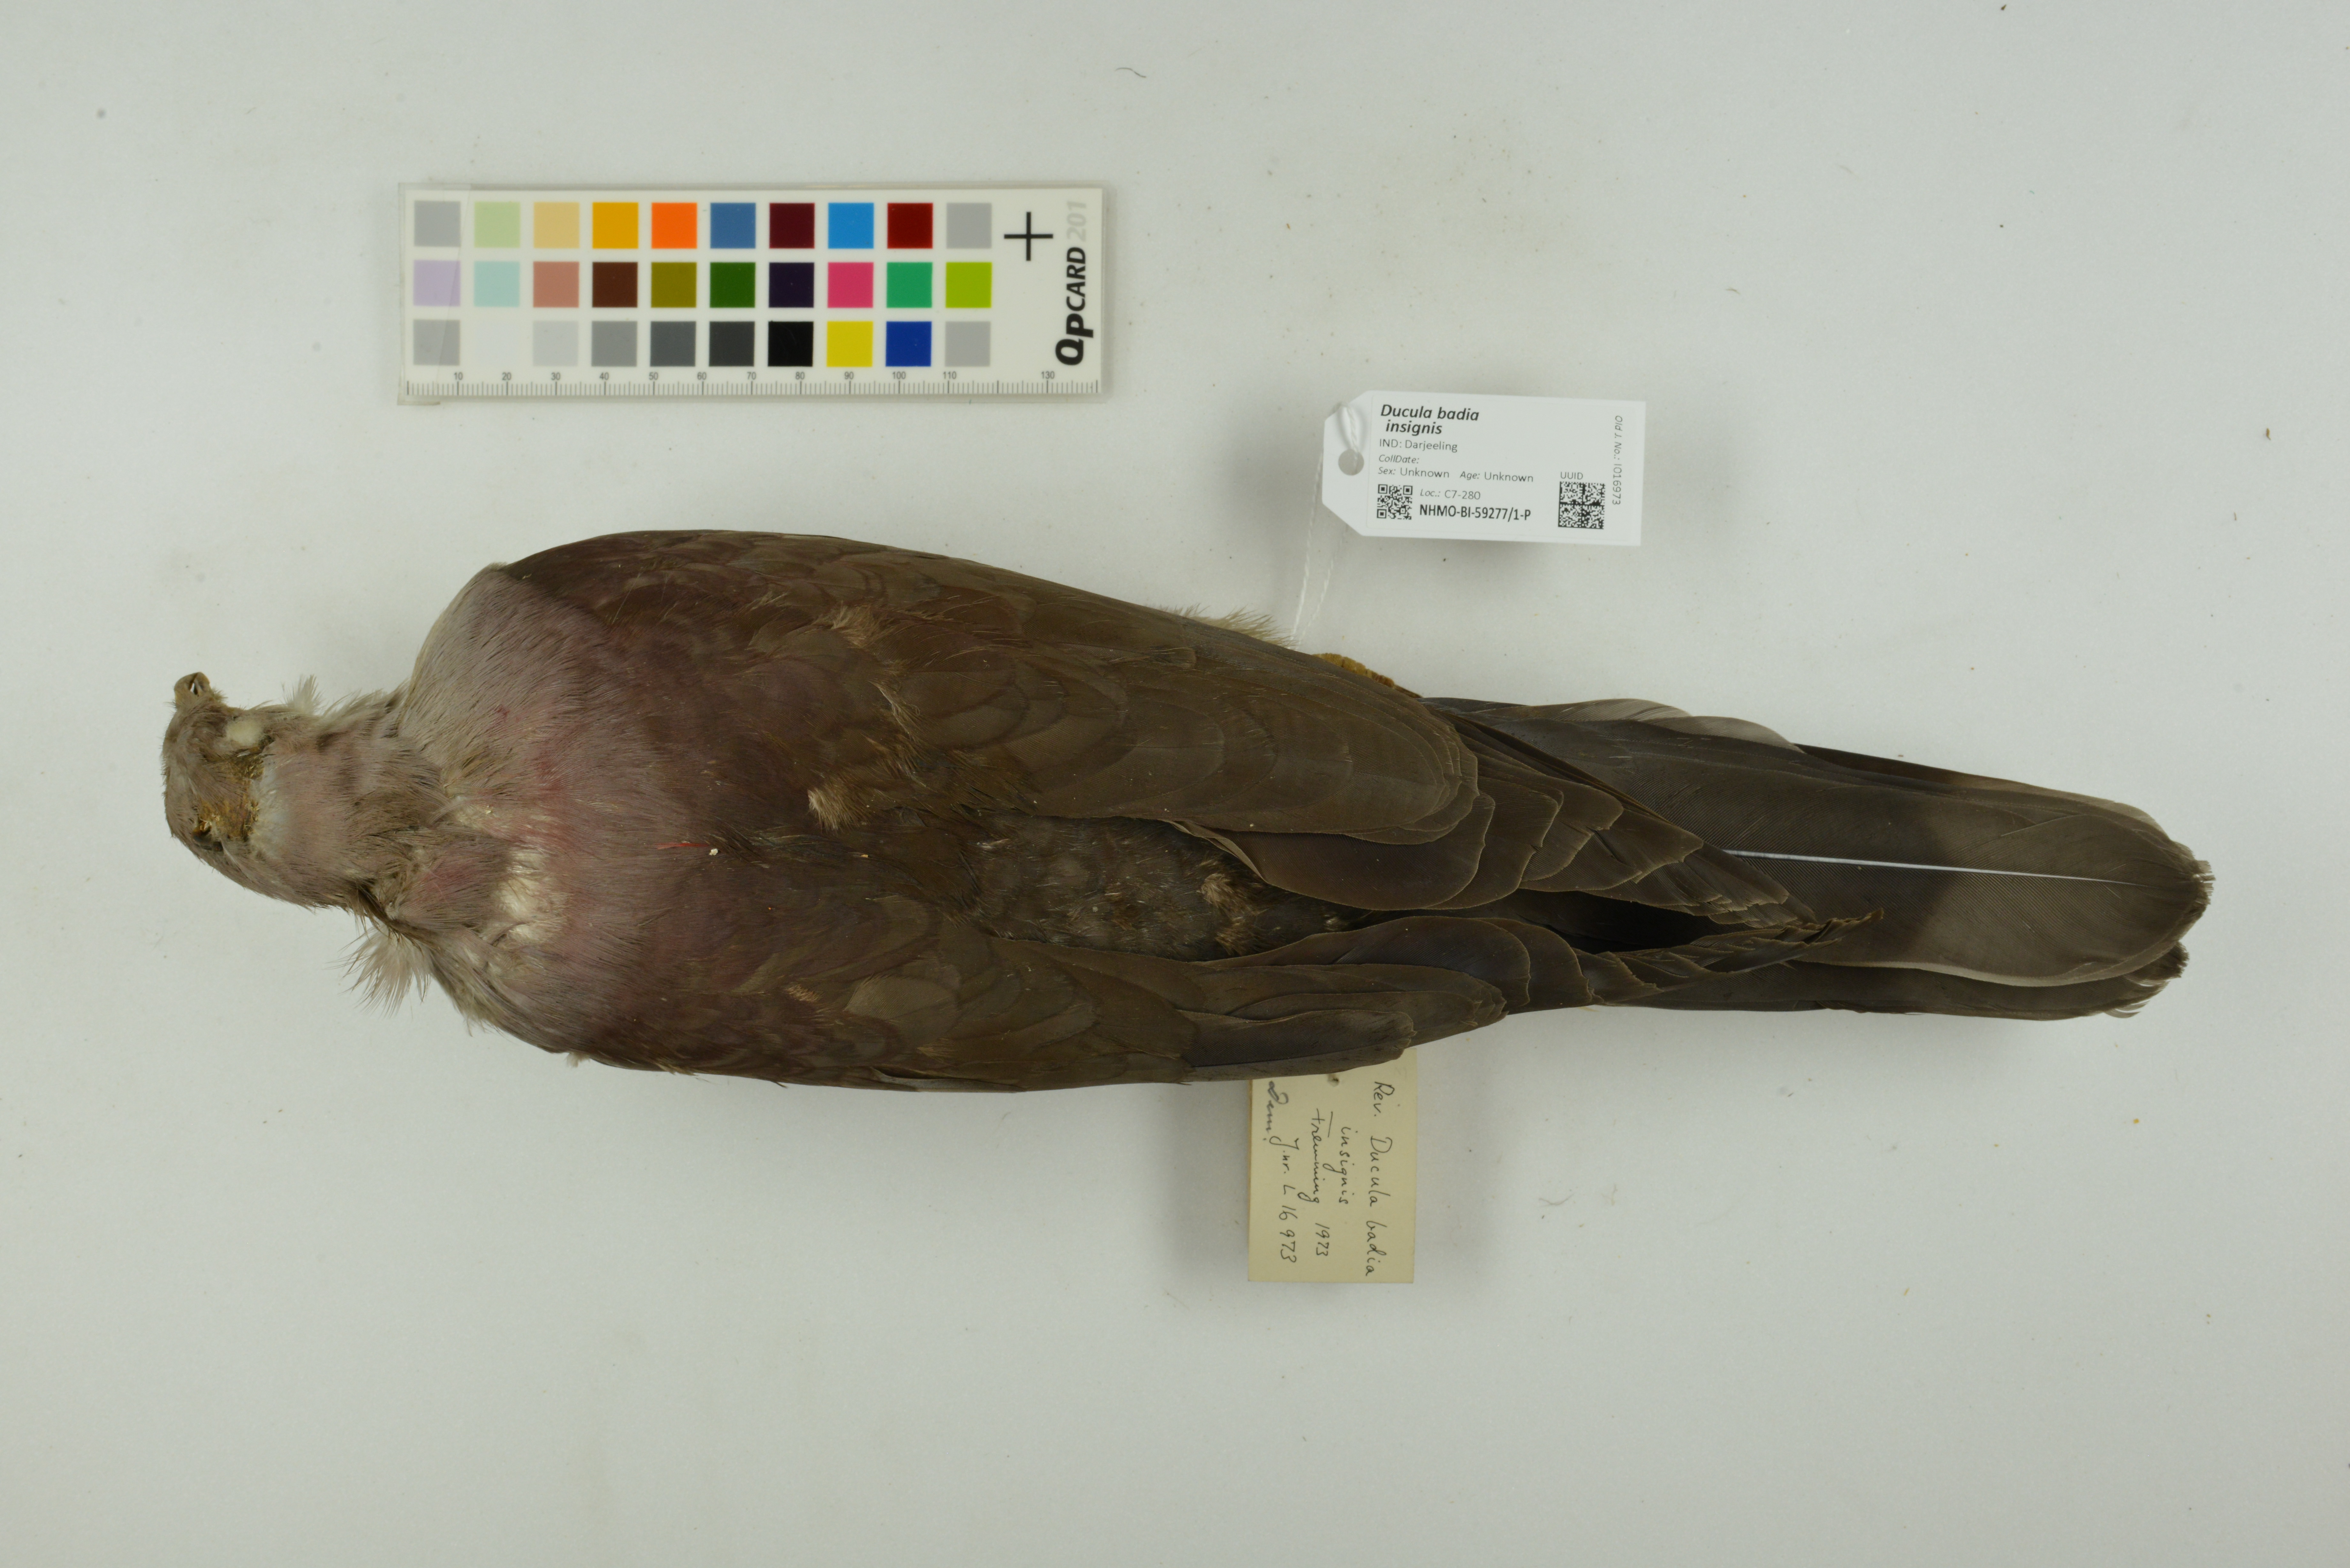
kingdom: Animalia
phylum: Chordata
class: Aves
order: Columbiformes
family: Columbidae
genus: Ducula
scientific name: Ducula badia
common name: Mountain imperial pigeon
